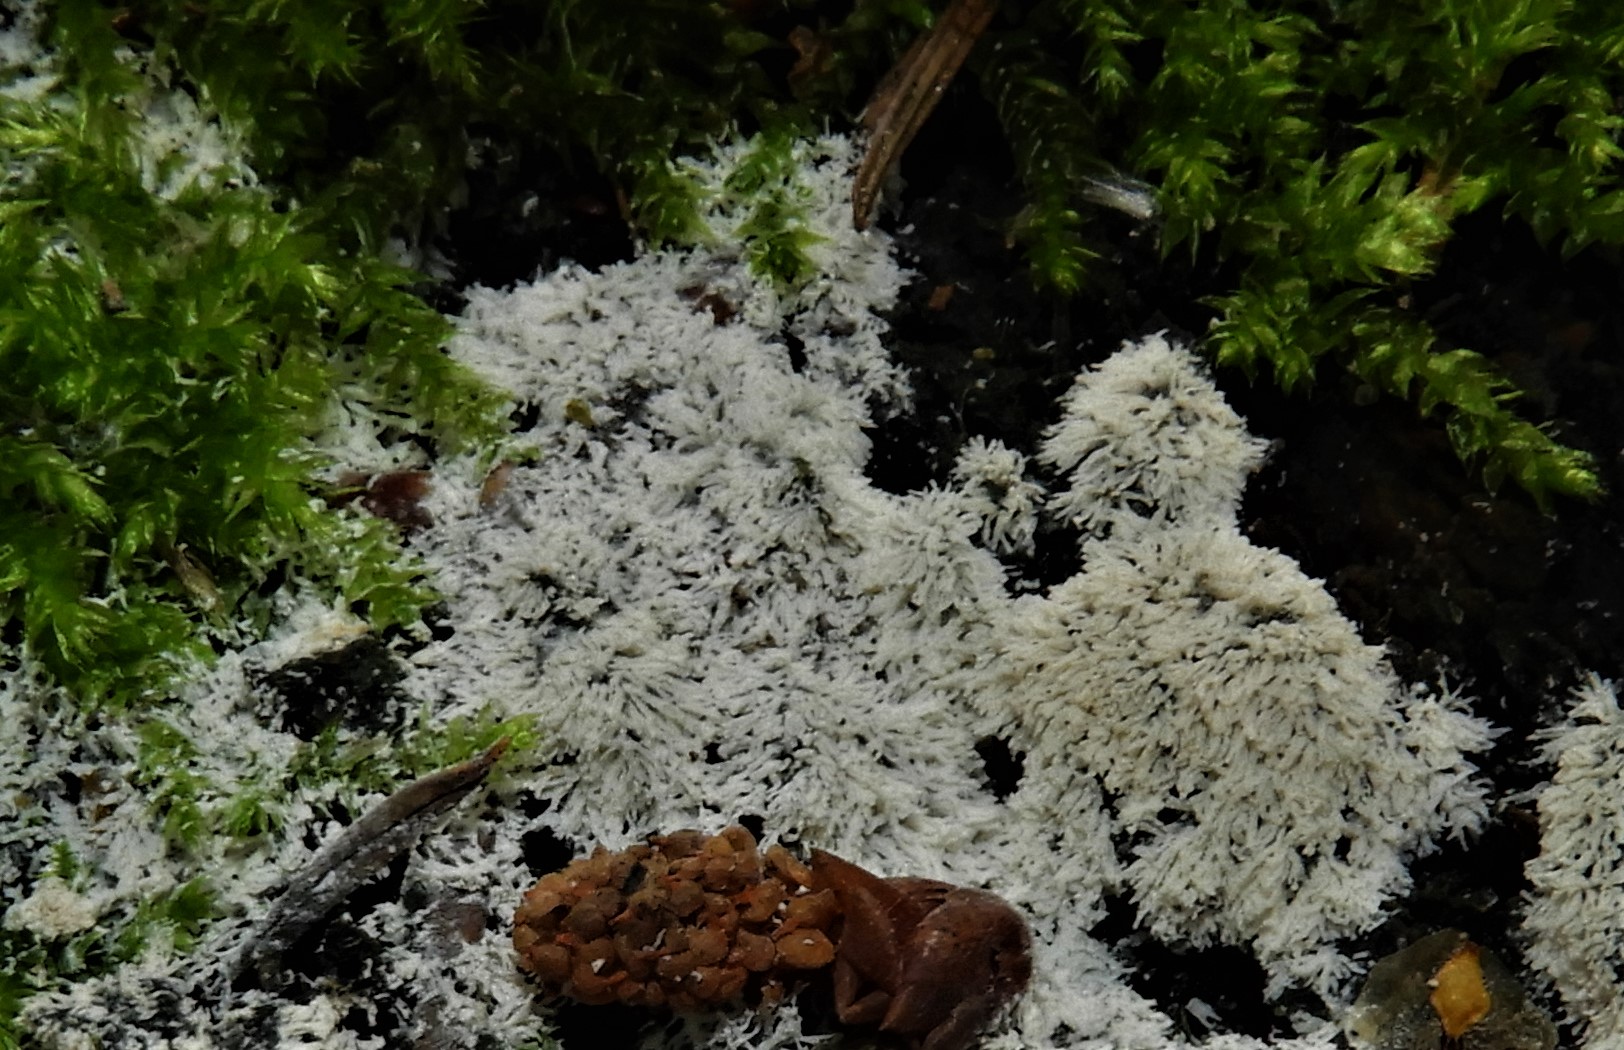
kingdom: Protozoa
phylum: Mycetozoa
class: Protosteliomycetes
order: Ceratiomyxales
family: Ceratiomyxaceae
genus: Ceratiomyxa
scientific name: Ceratiomyxa fruticulosa
